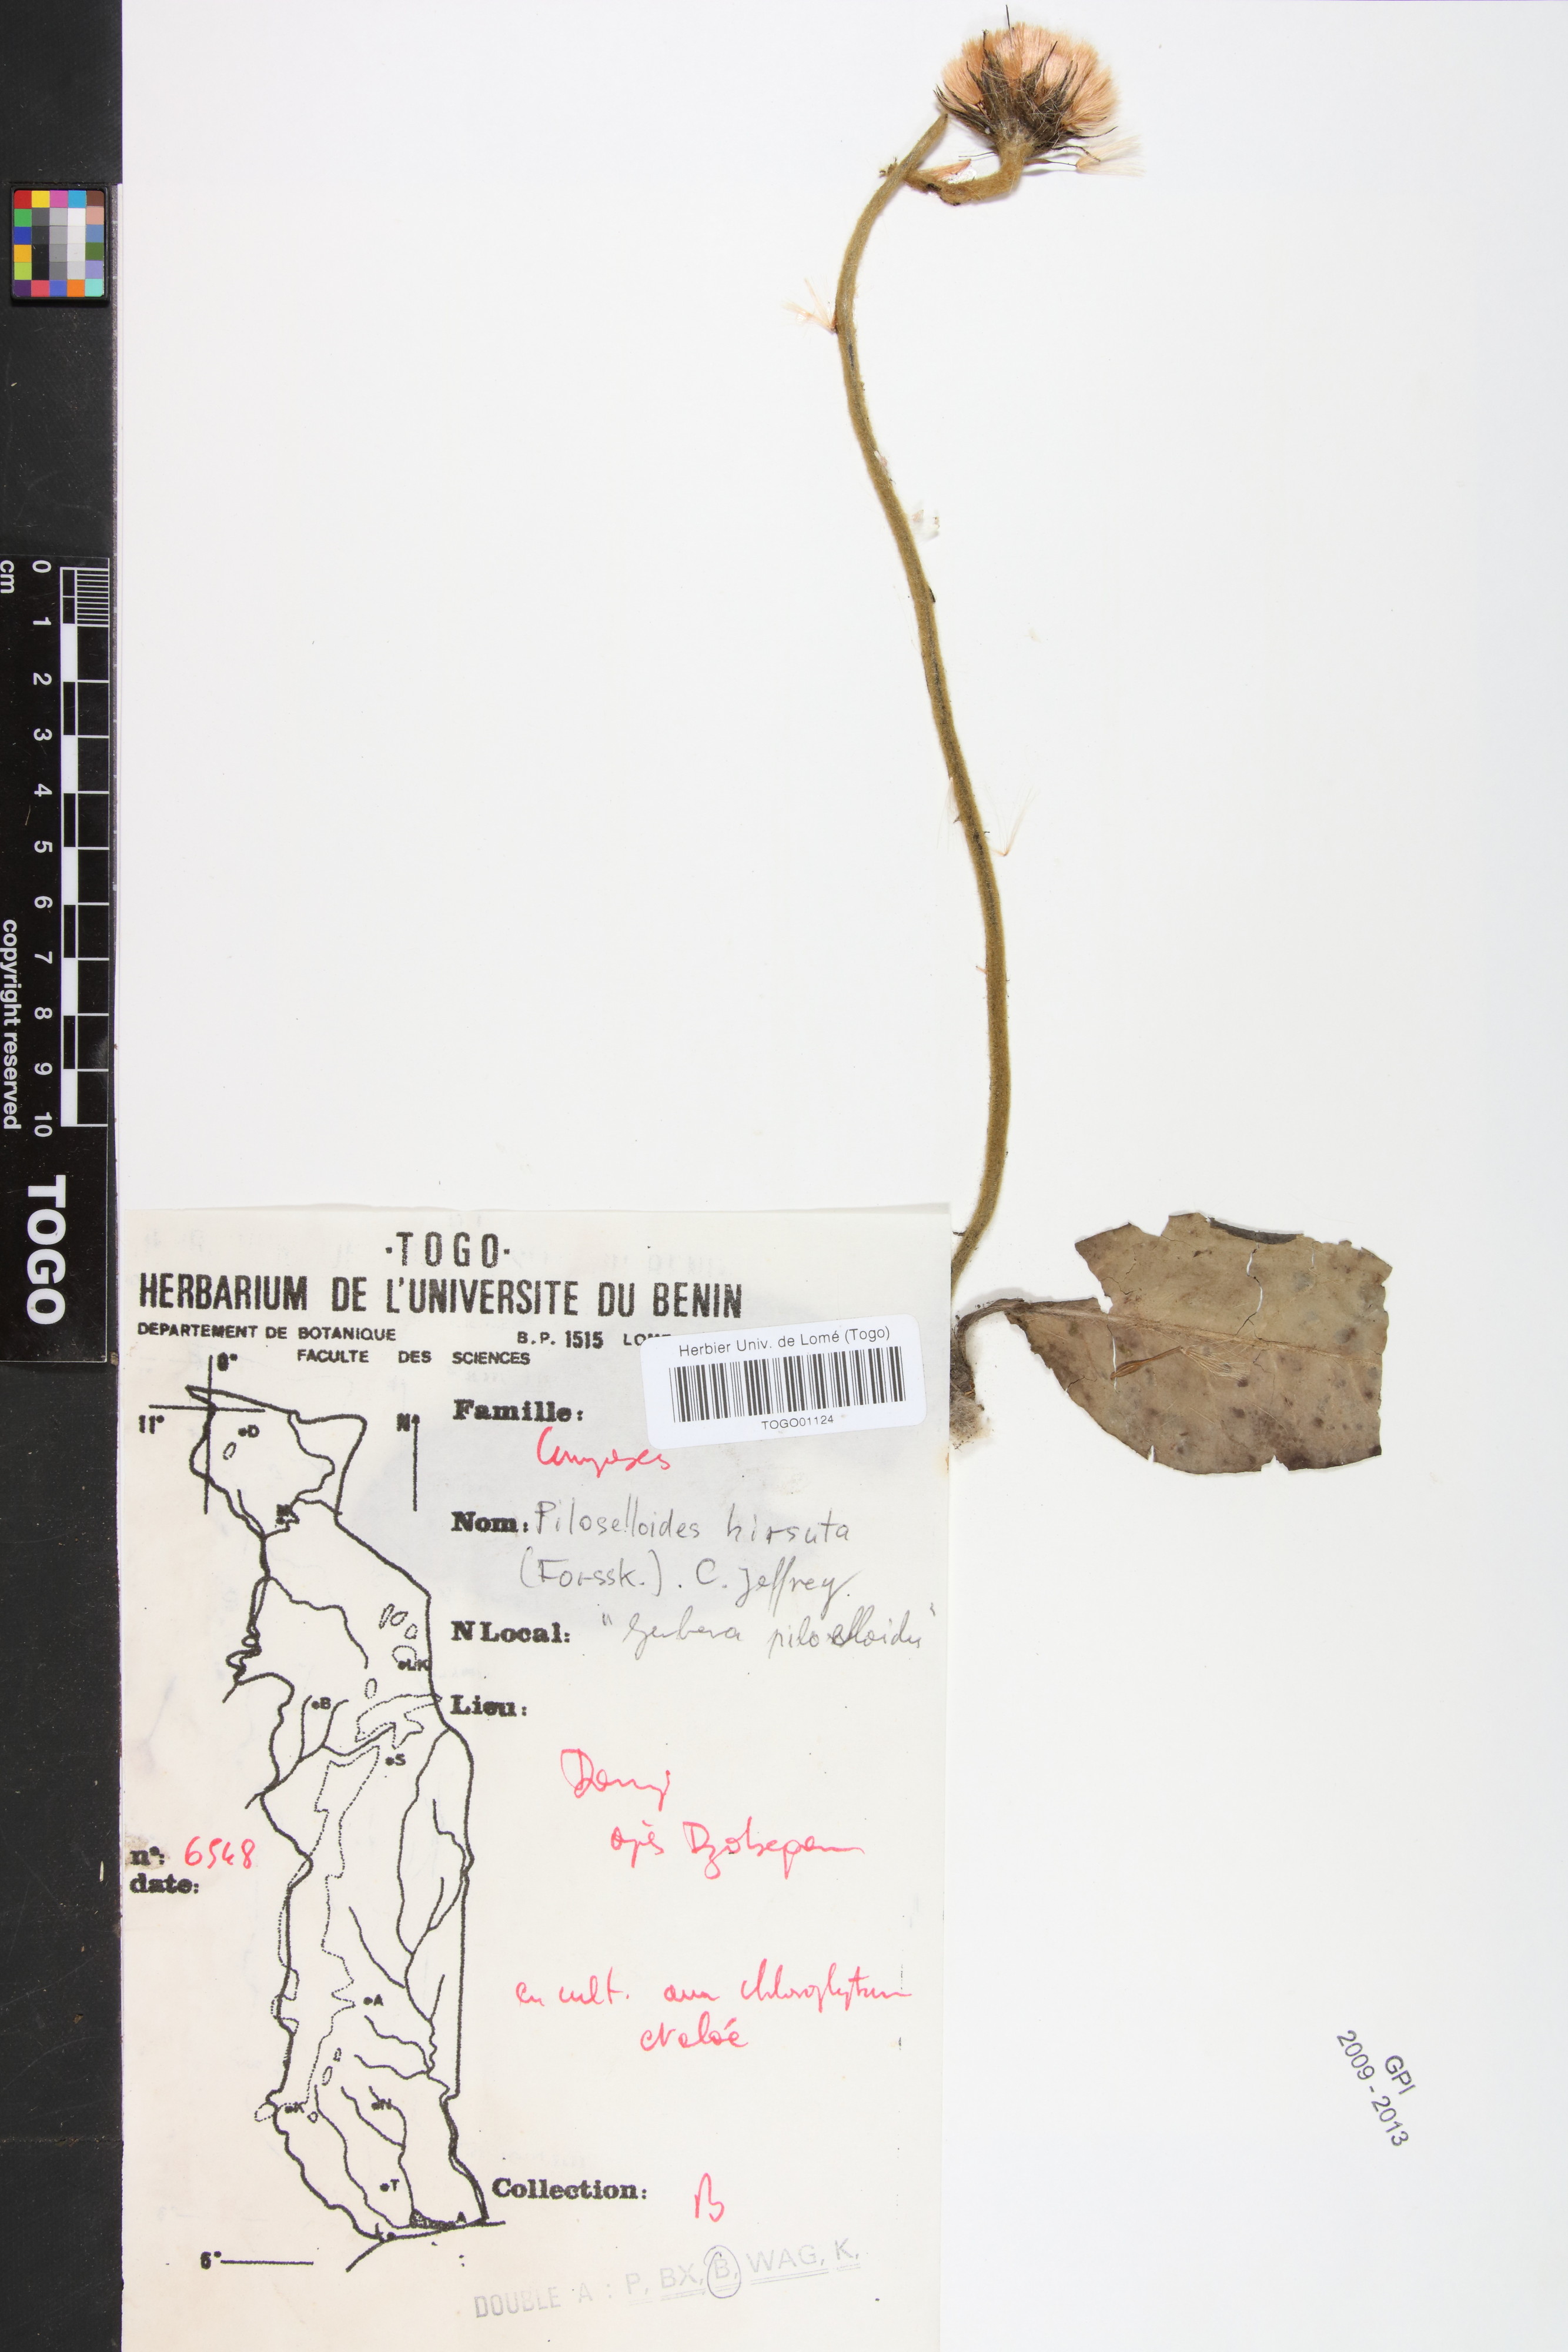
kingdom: Plantae
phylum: Tracheophyta
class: Magnoliopsida
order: Asterales
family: Asteraceae
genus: Piloselloides
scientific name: Piloselloides hirsuta
